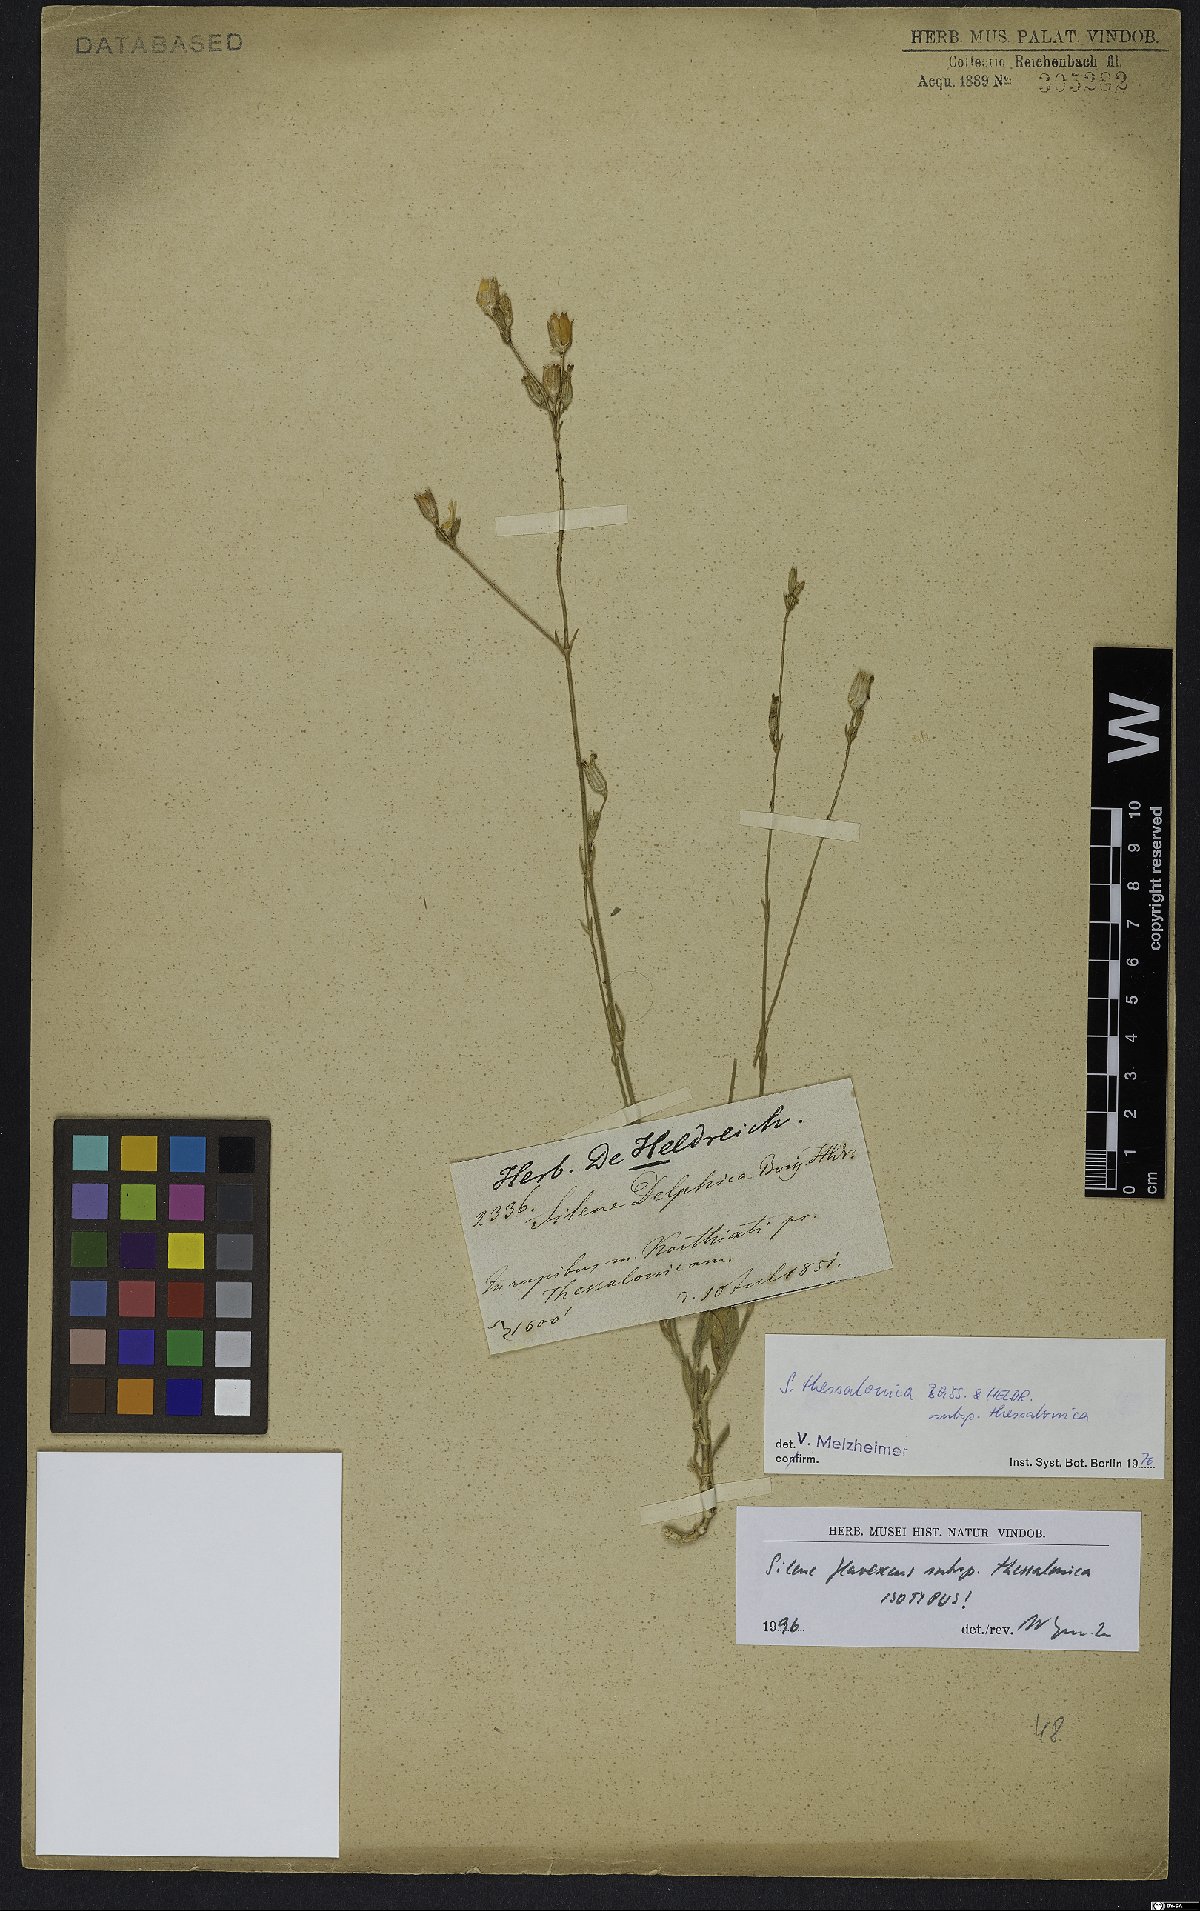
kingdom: Plantae
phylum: Tracheophyta
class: Magnoliopsida
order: Caryophyllales
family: Caryophyllaceae
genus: Silene
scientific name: Silene flavescens
